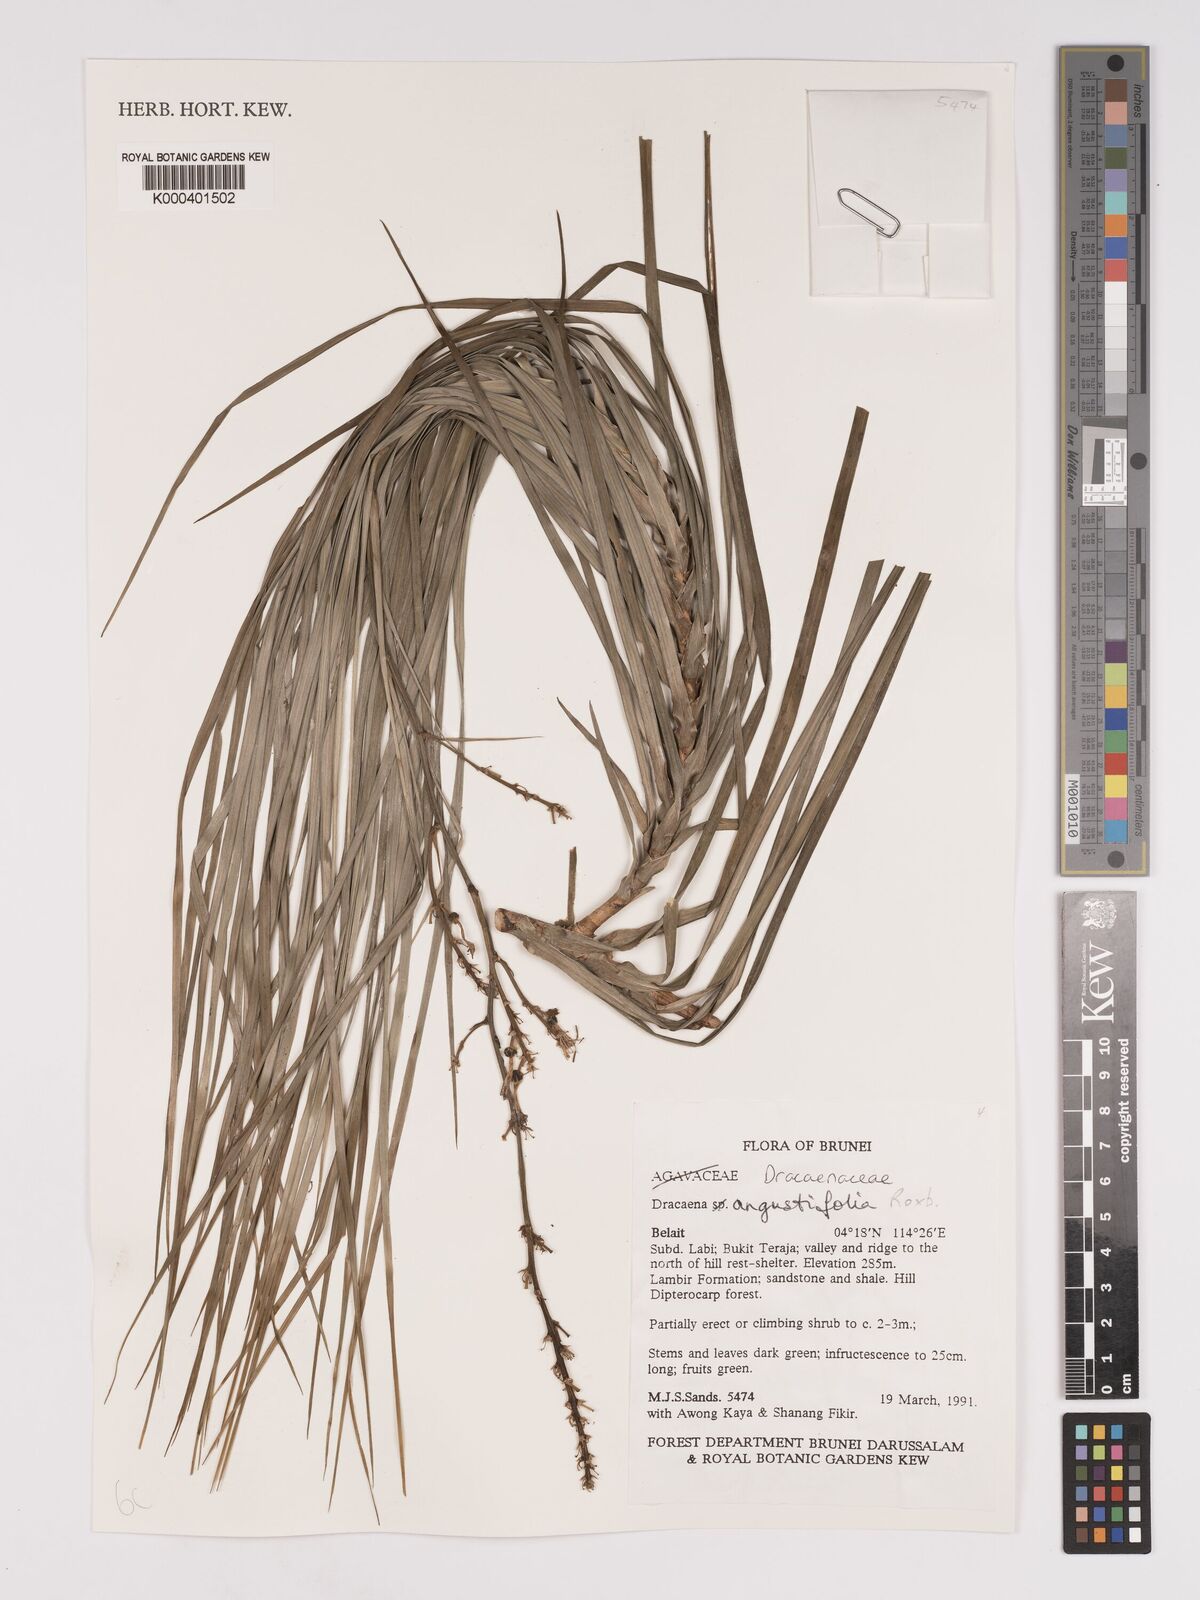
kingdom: Plantae
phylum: Tracheophyta
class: Liliopsida
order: Asparagales
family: Asparagaceae
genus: Dracaena
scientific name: Dracaena angustifolia
